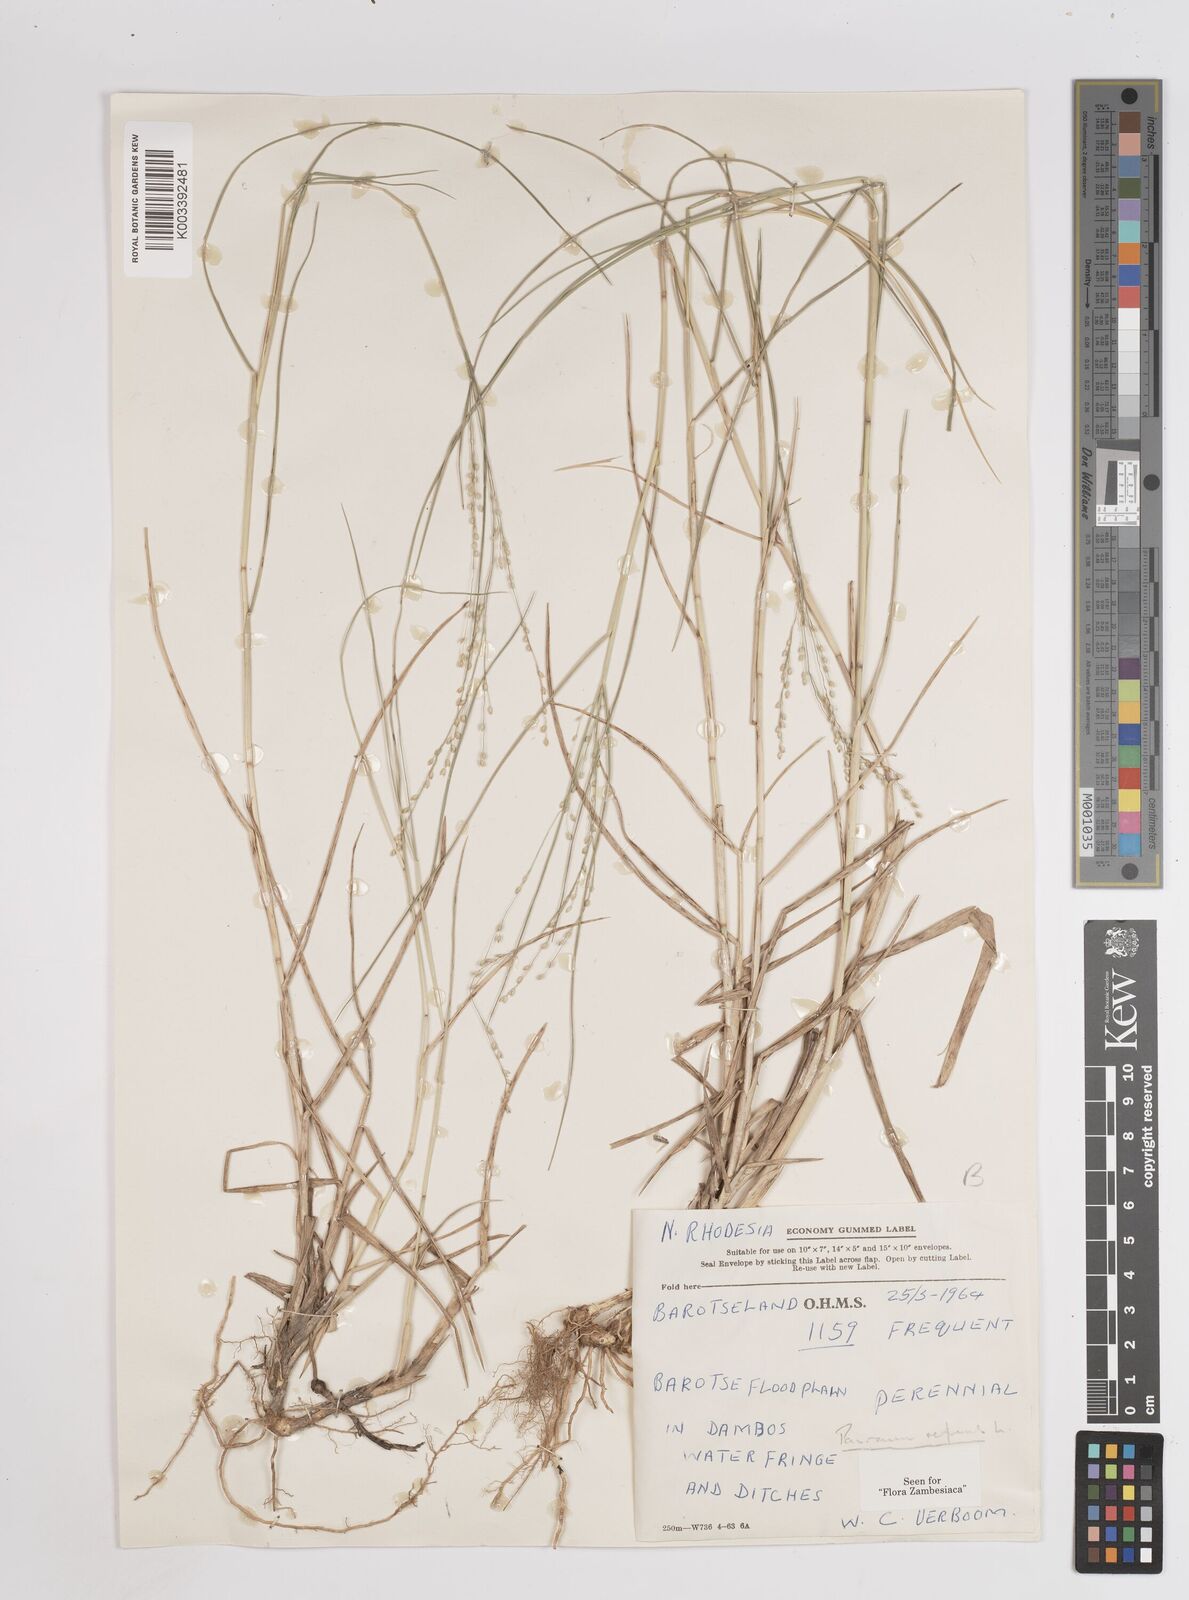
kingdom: Plantae
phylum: Tracheophyta
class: Liliopsida
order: Poales
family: Poaceae
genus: Panicum
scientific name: Panicum repens
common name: Torpedo grass
